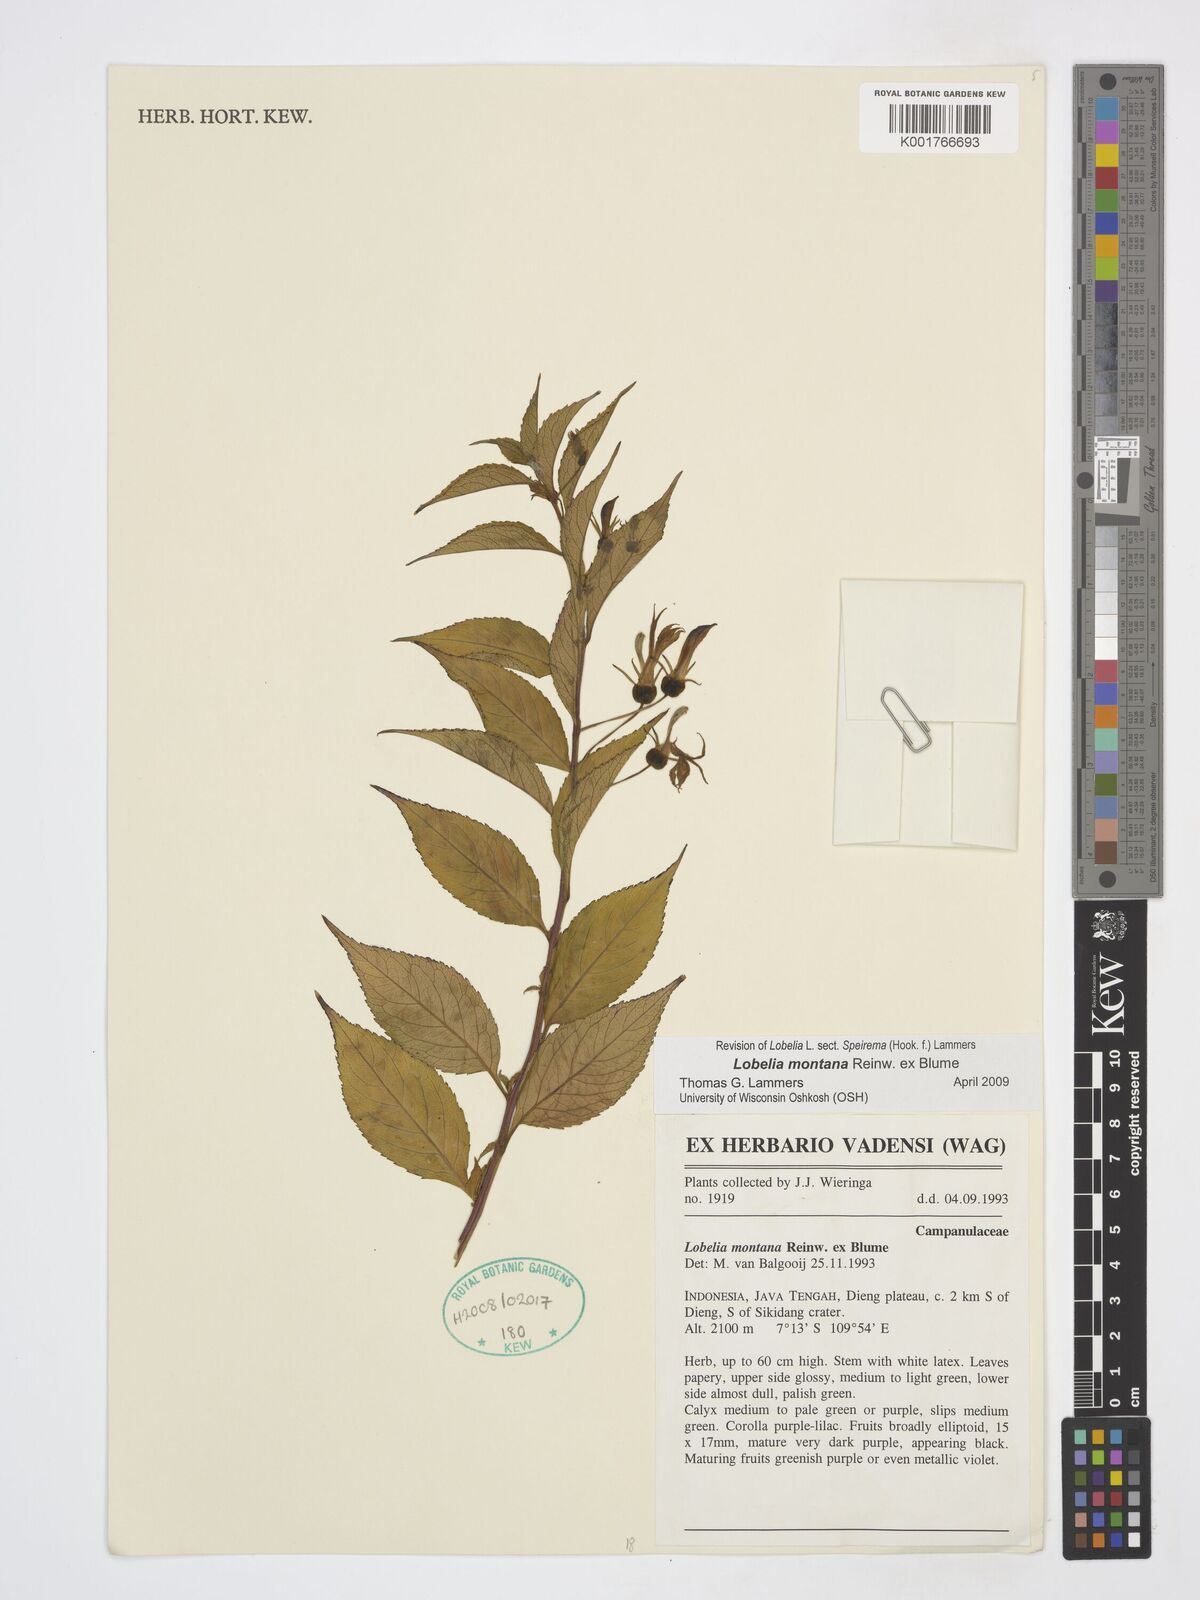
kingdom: Plantae
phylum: Tracheophyta
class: Magnoliopsida
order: Asterales
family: Campanulaceae
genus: Lobelia
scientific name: Lobelia montana
